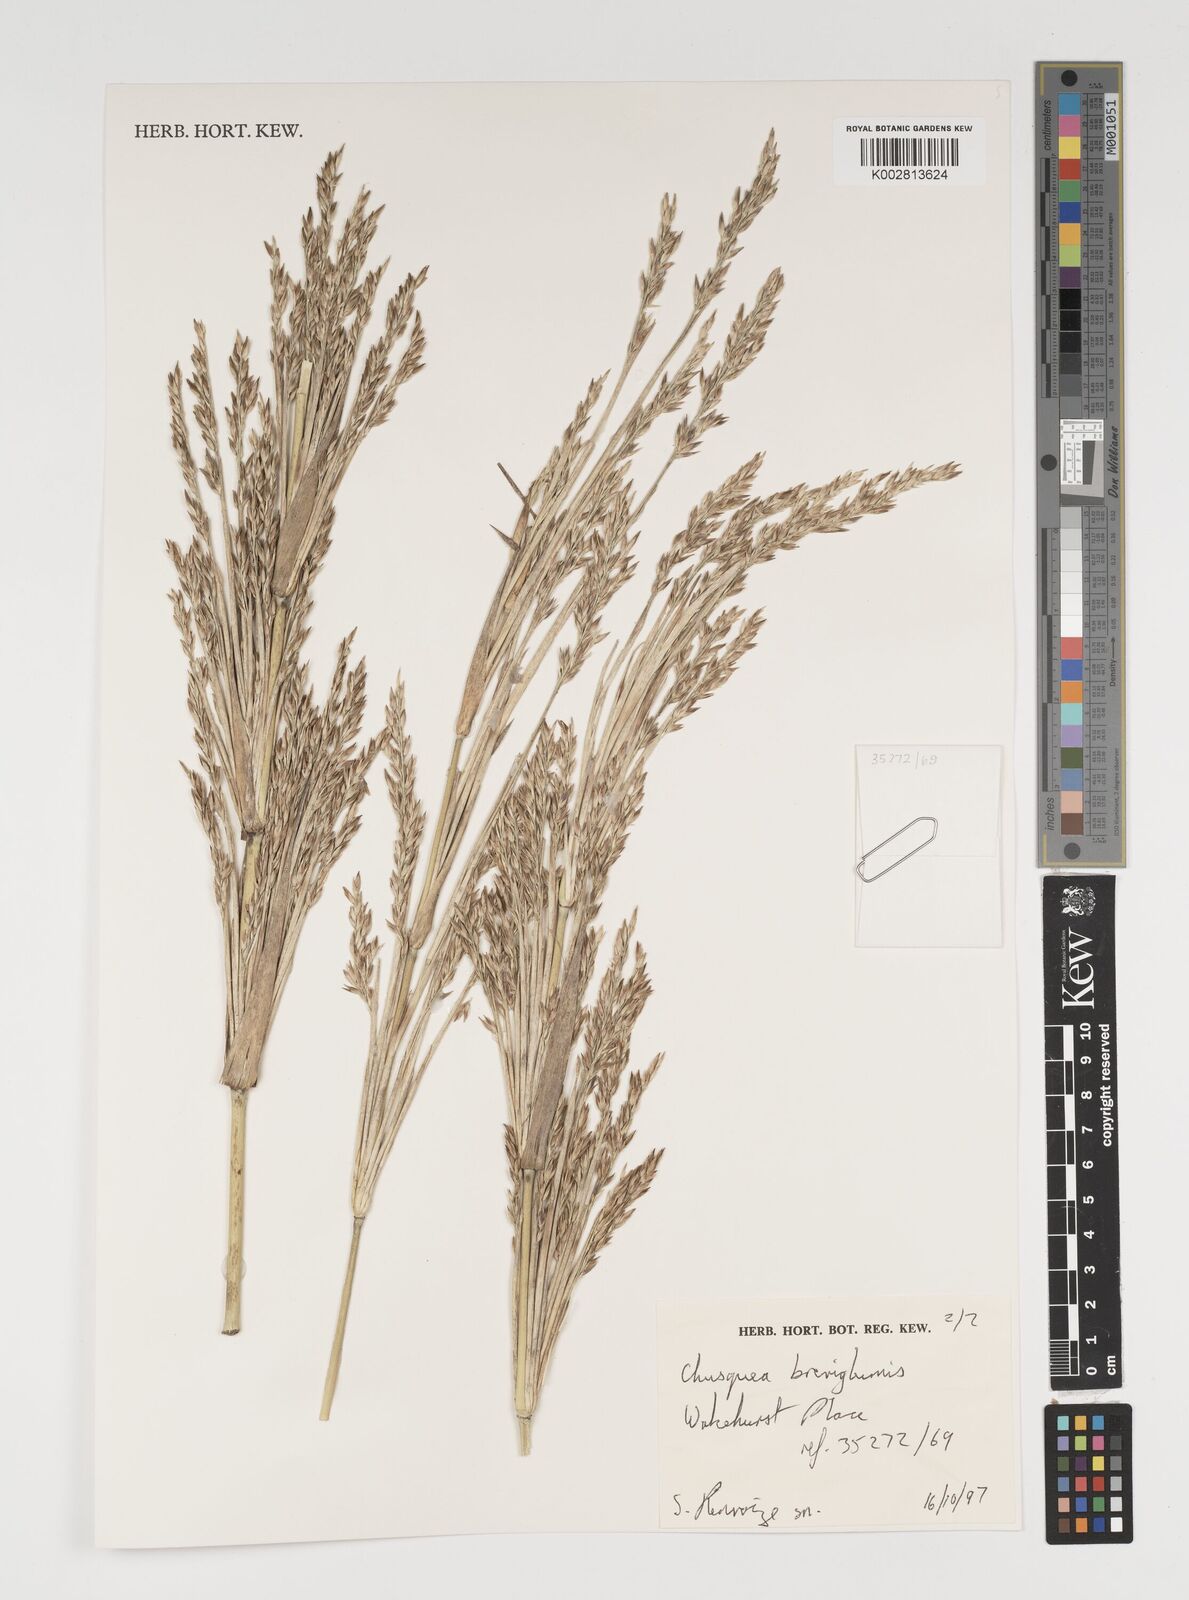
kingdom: Plantae
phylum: Tracheophyta
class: Liliopsida
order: Poales
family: Poaceae
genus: Chusquea
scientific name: Chusquea culeou
